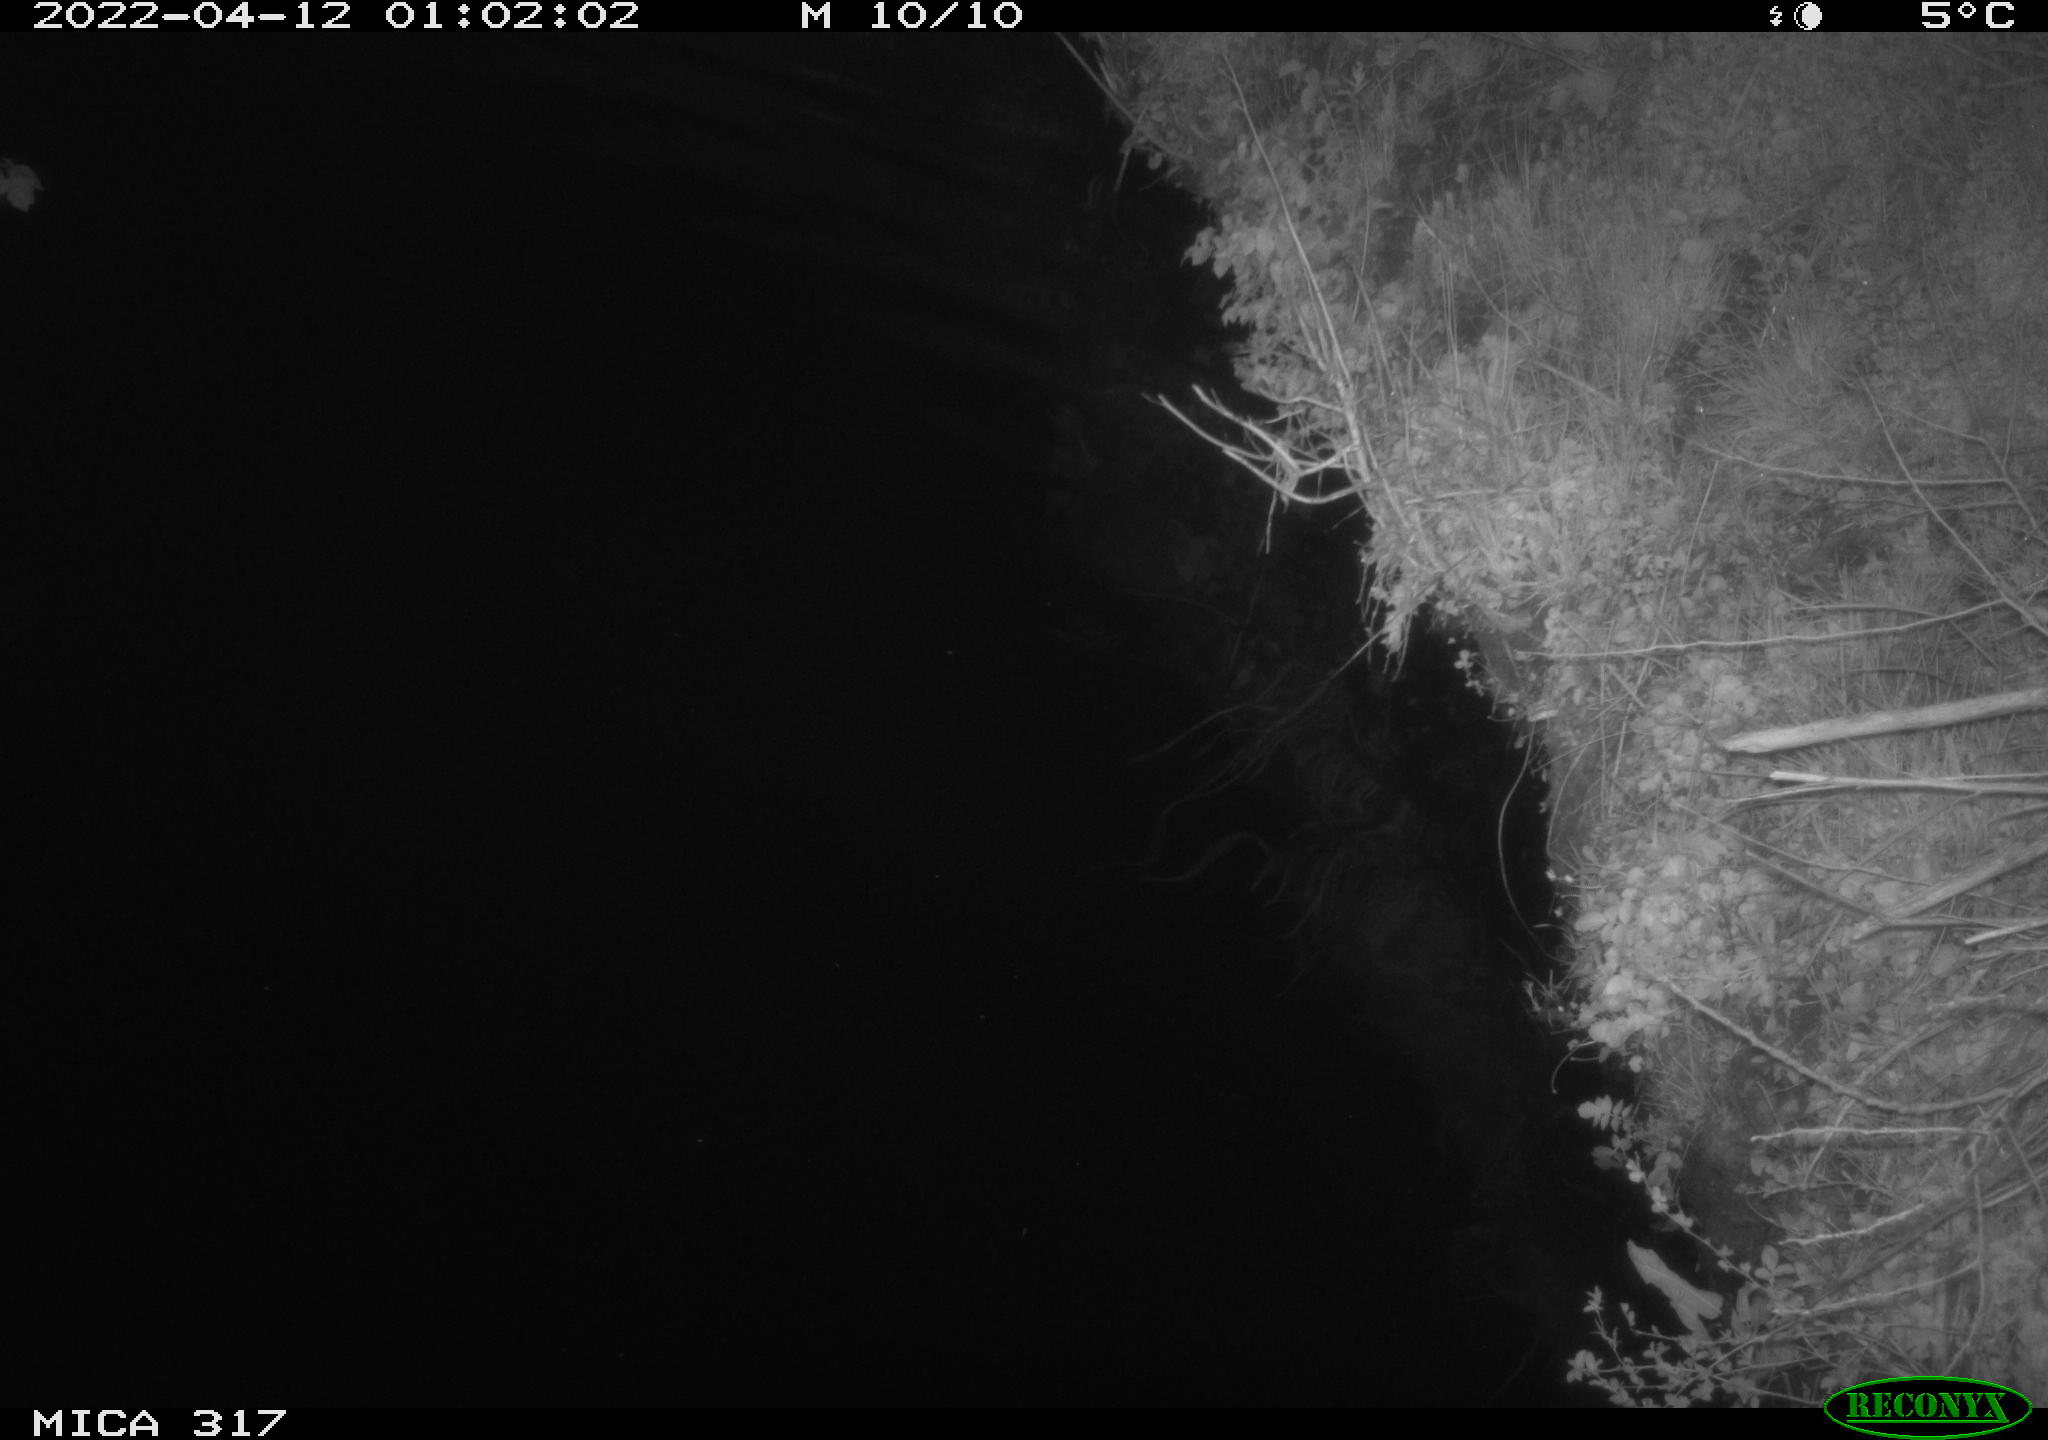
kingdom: Animalia
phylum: Chordata
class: Aves
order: Anseriformes
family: Anatidae
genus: Anas
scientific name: Anas platyrhynchos
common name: Mallard
